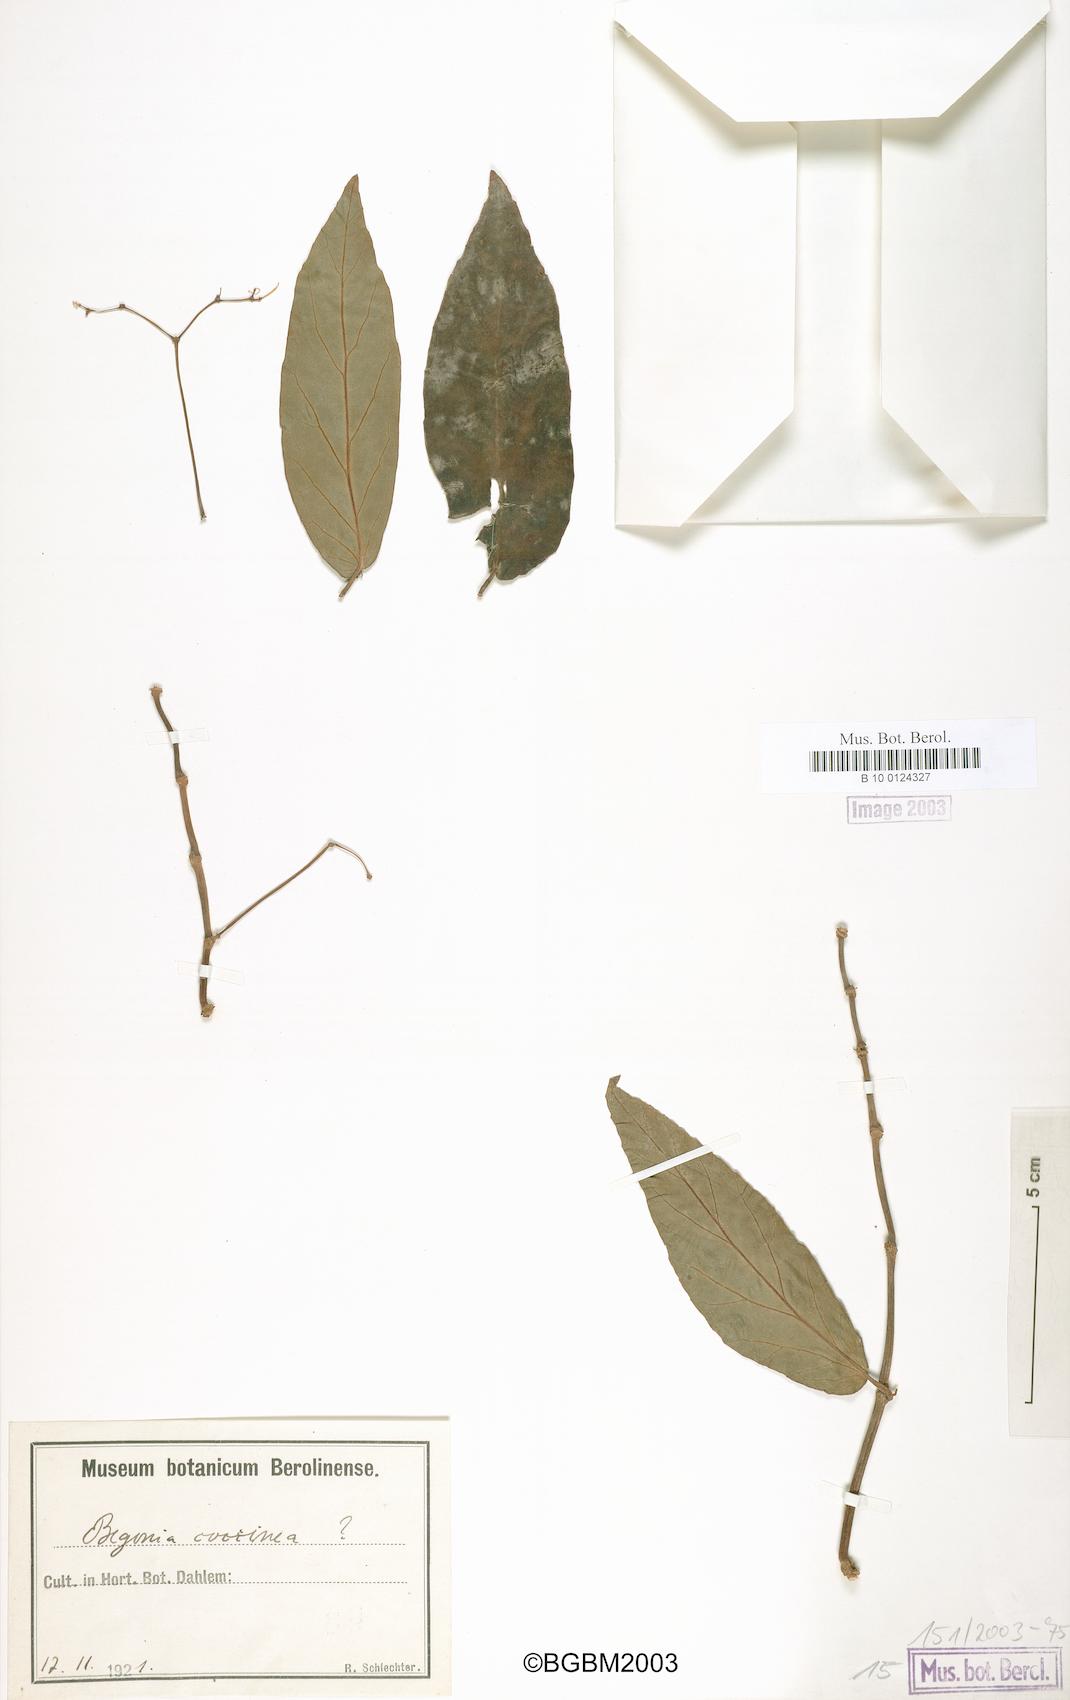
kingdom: Plantae
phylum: Tracheophyta
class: Magnoliopsida
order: Cucurbitales
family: Begoniaceae
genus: Begonia
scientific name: Begonia coccinea
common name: Angel-wing begonia
